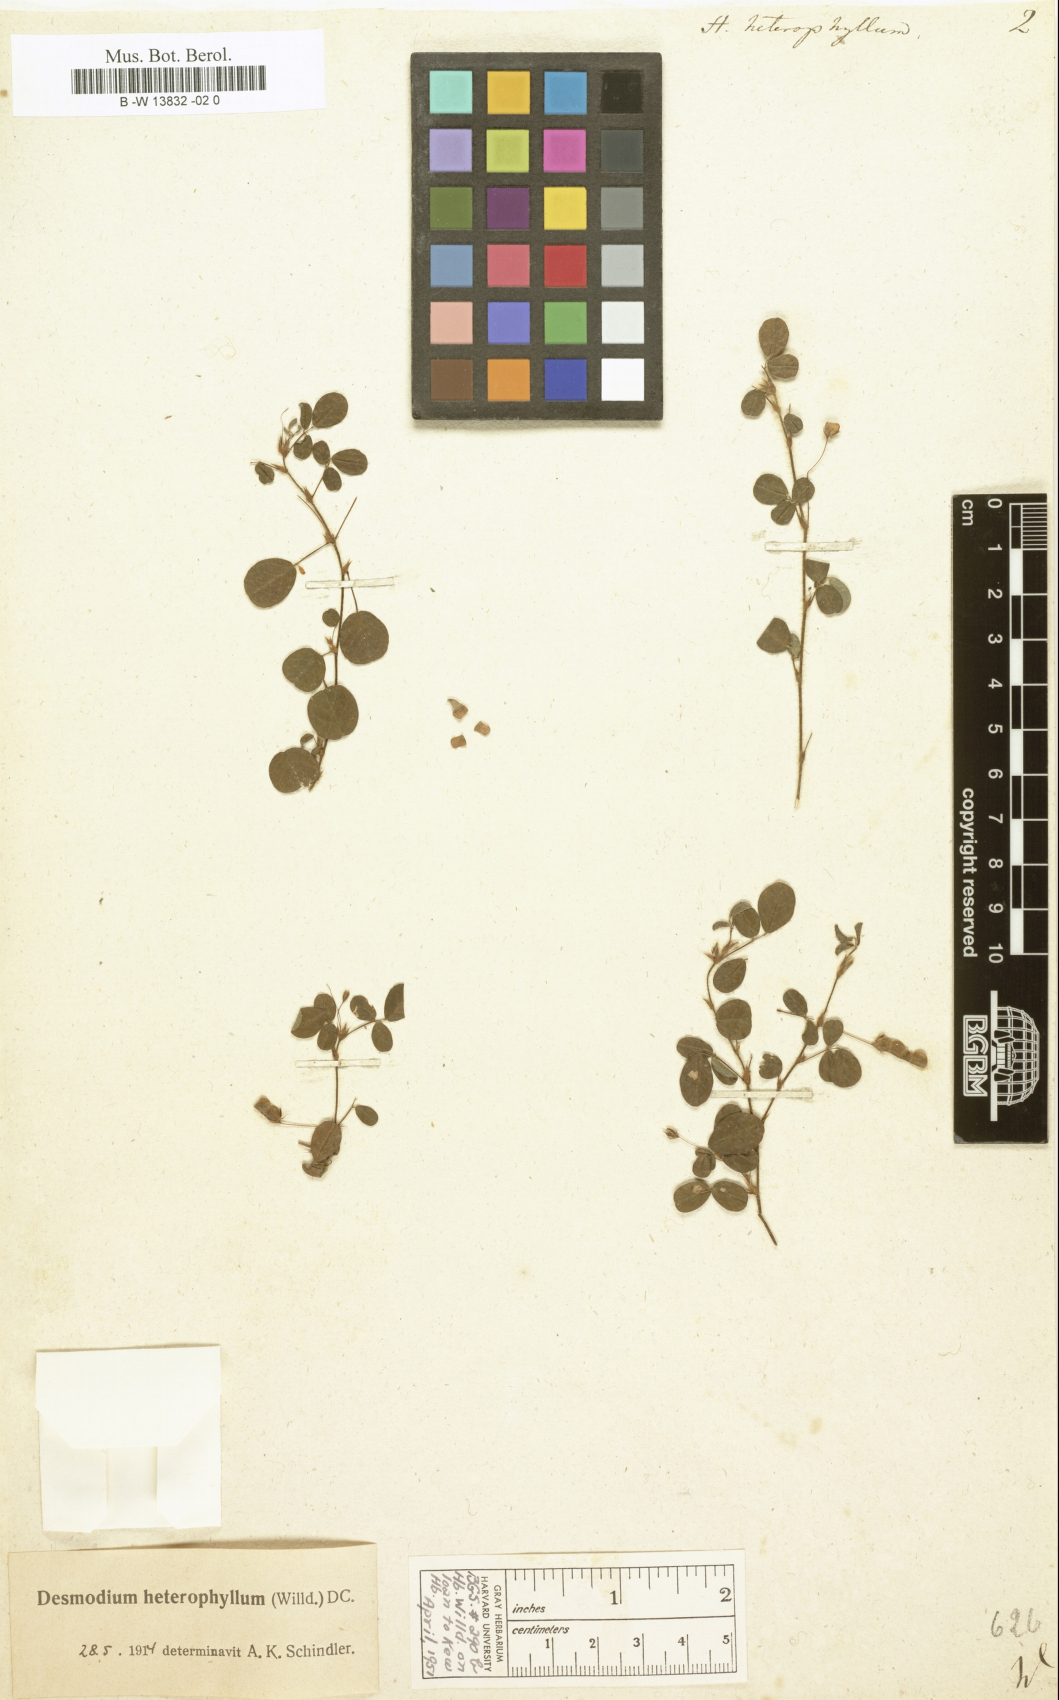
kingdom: Plantae
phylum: Tracheophyta
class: Magnoliopsida
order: Fabales
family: Fabaceae
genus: Grona
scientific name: Grona heterophylla
